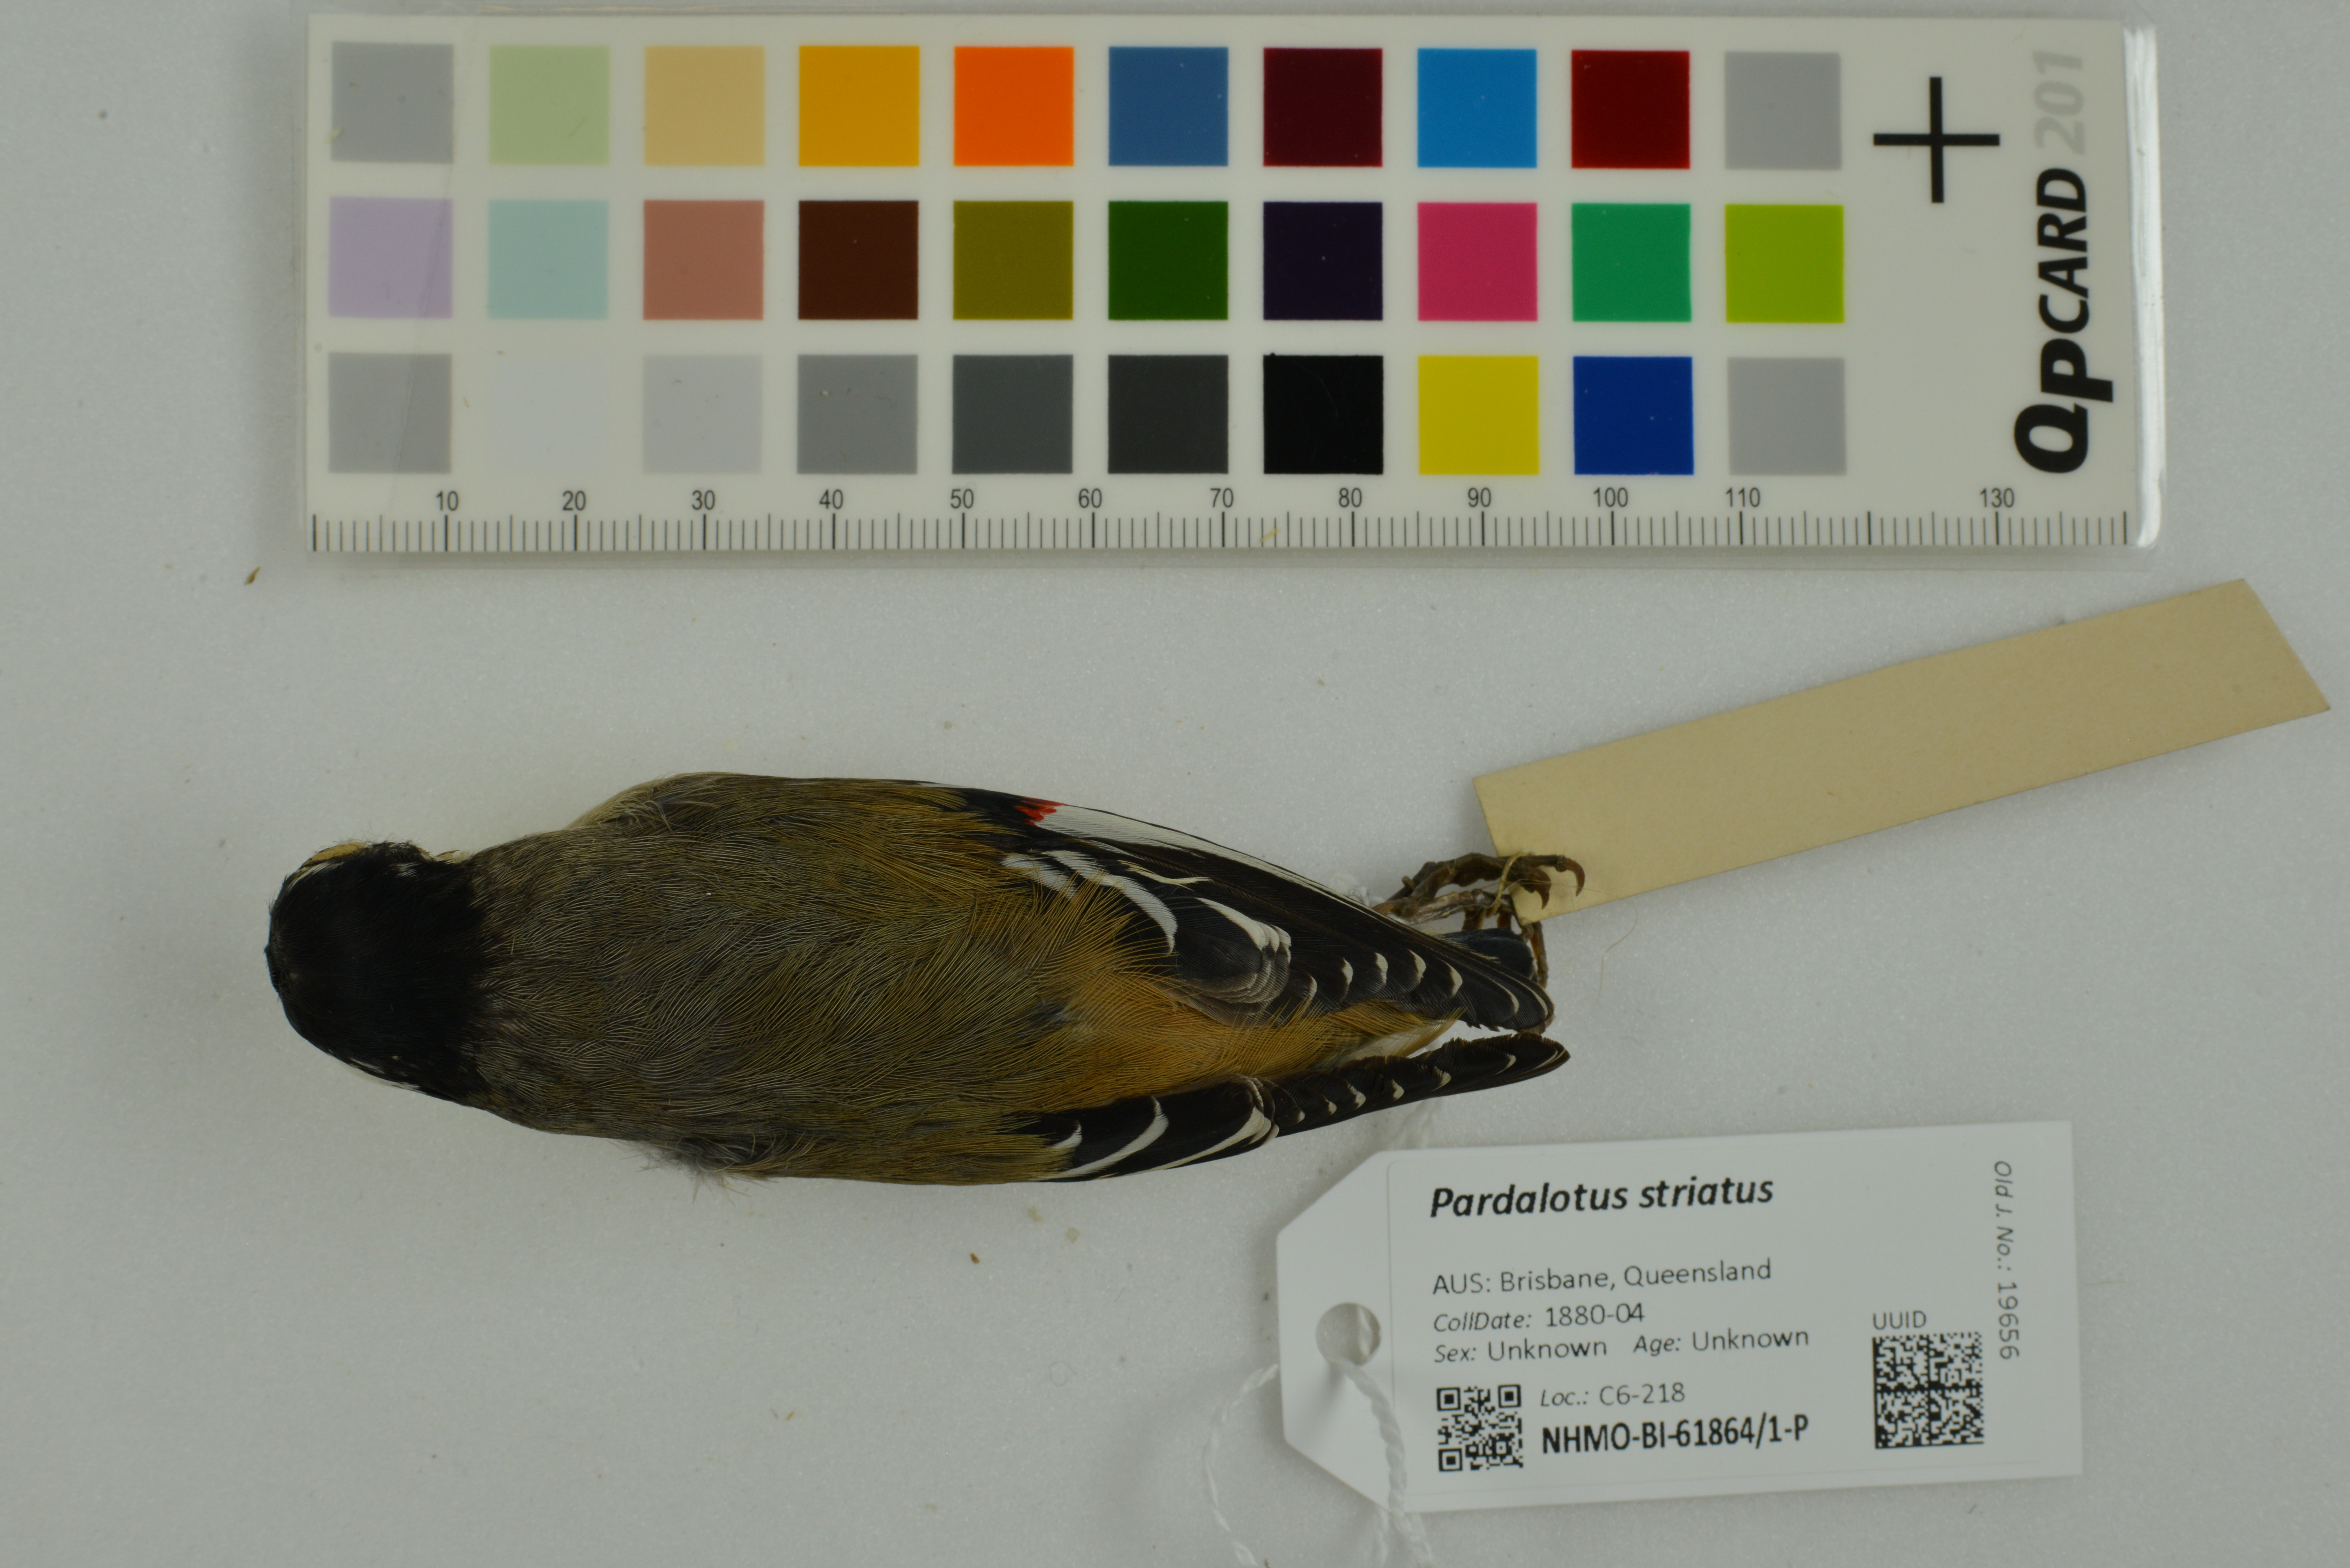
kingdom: Animalia
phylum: Chordata
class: Aves
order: Passeriformes
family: Pardalotidae
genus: Pardalotus
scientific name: Pardalotus striatus
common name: Striated pardalote
